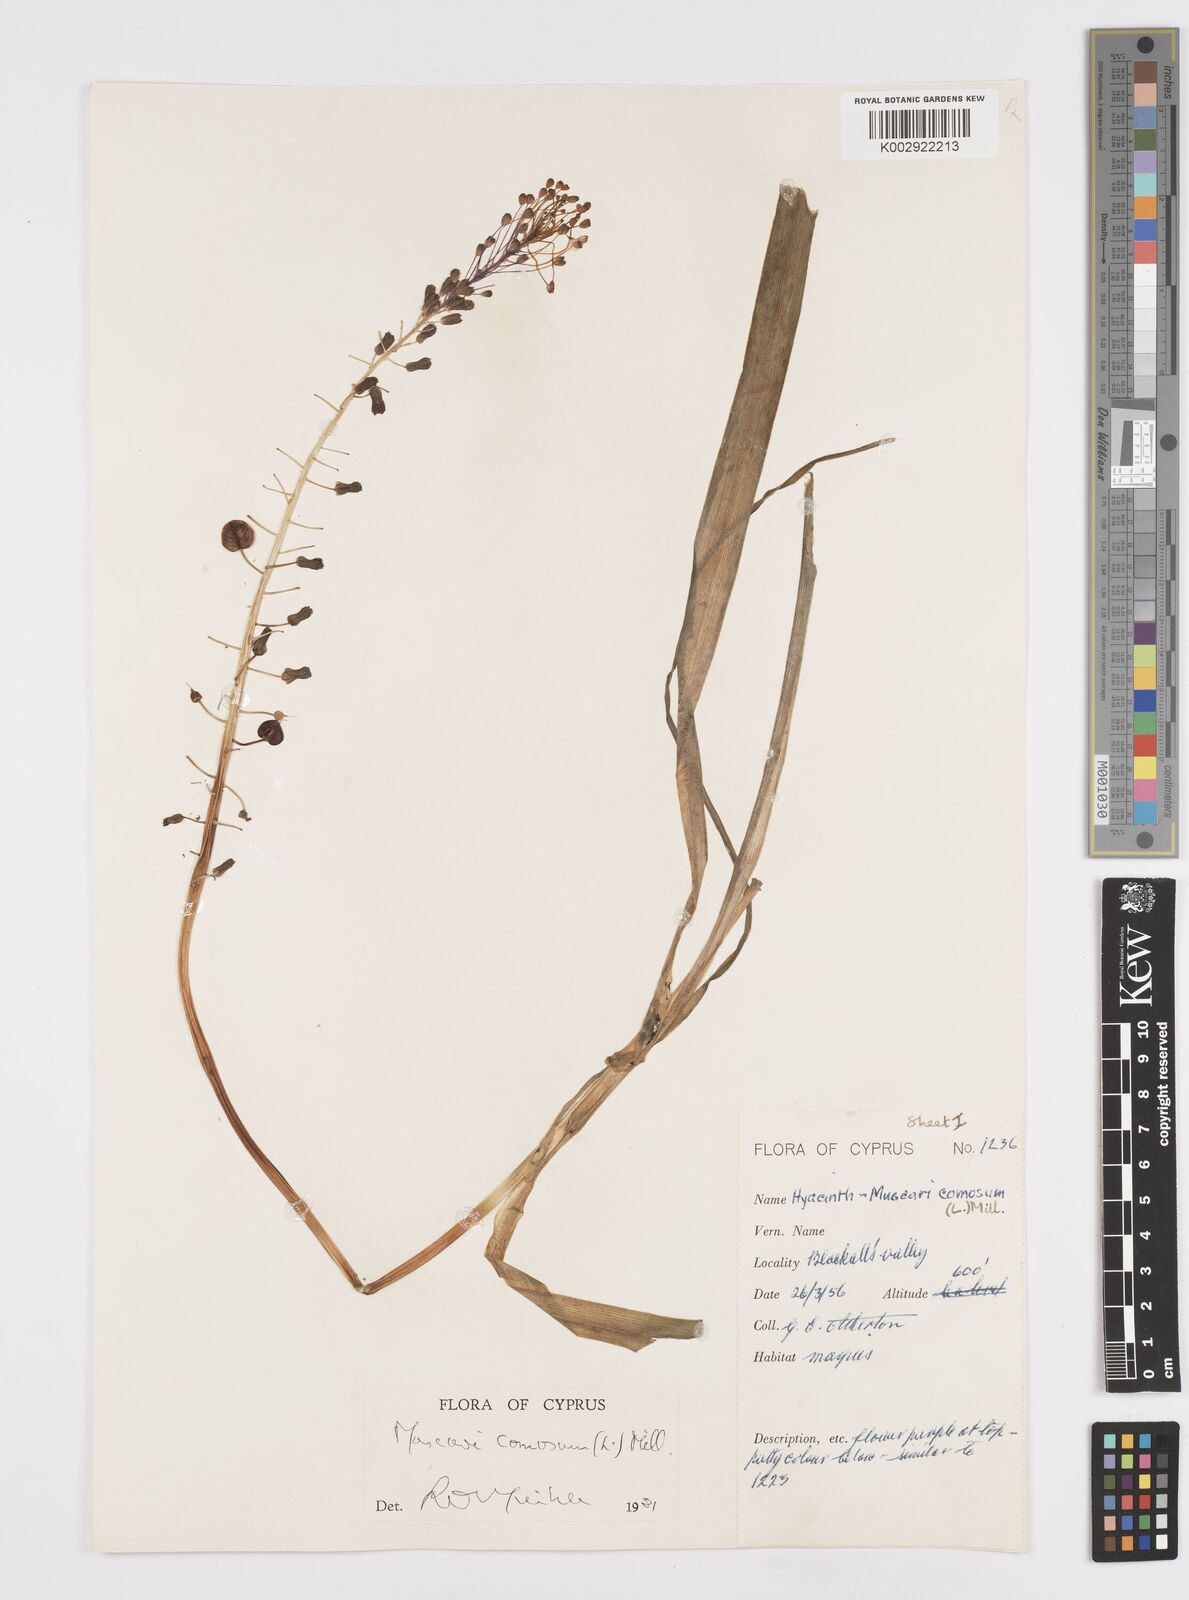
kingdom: Plantae
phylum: Tracheophyta
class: Liliopsida
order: Asparagales
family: Asparagaceae
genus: Muscari
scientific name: Muscari comosum
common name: Tassel hyacinth
